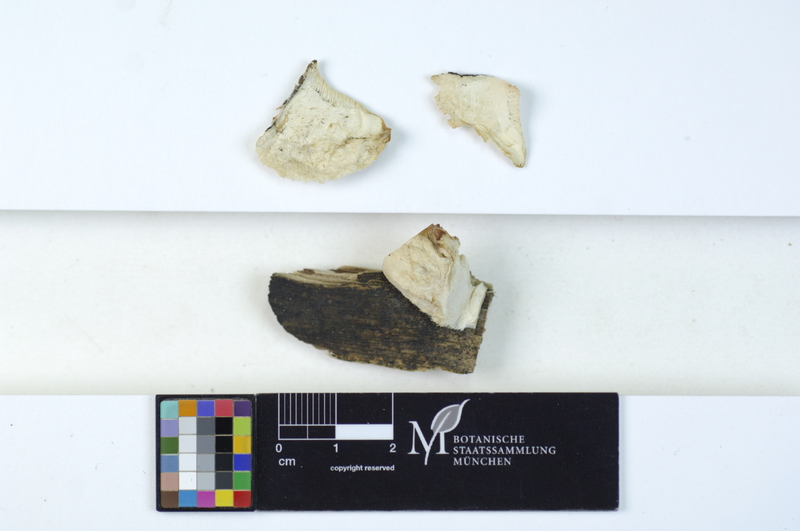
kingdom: Plantae
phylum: Tracheophyta
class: Magnoliopsida
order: Fagales
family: Betulaceae
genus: Alnus
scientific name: Alnus
